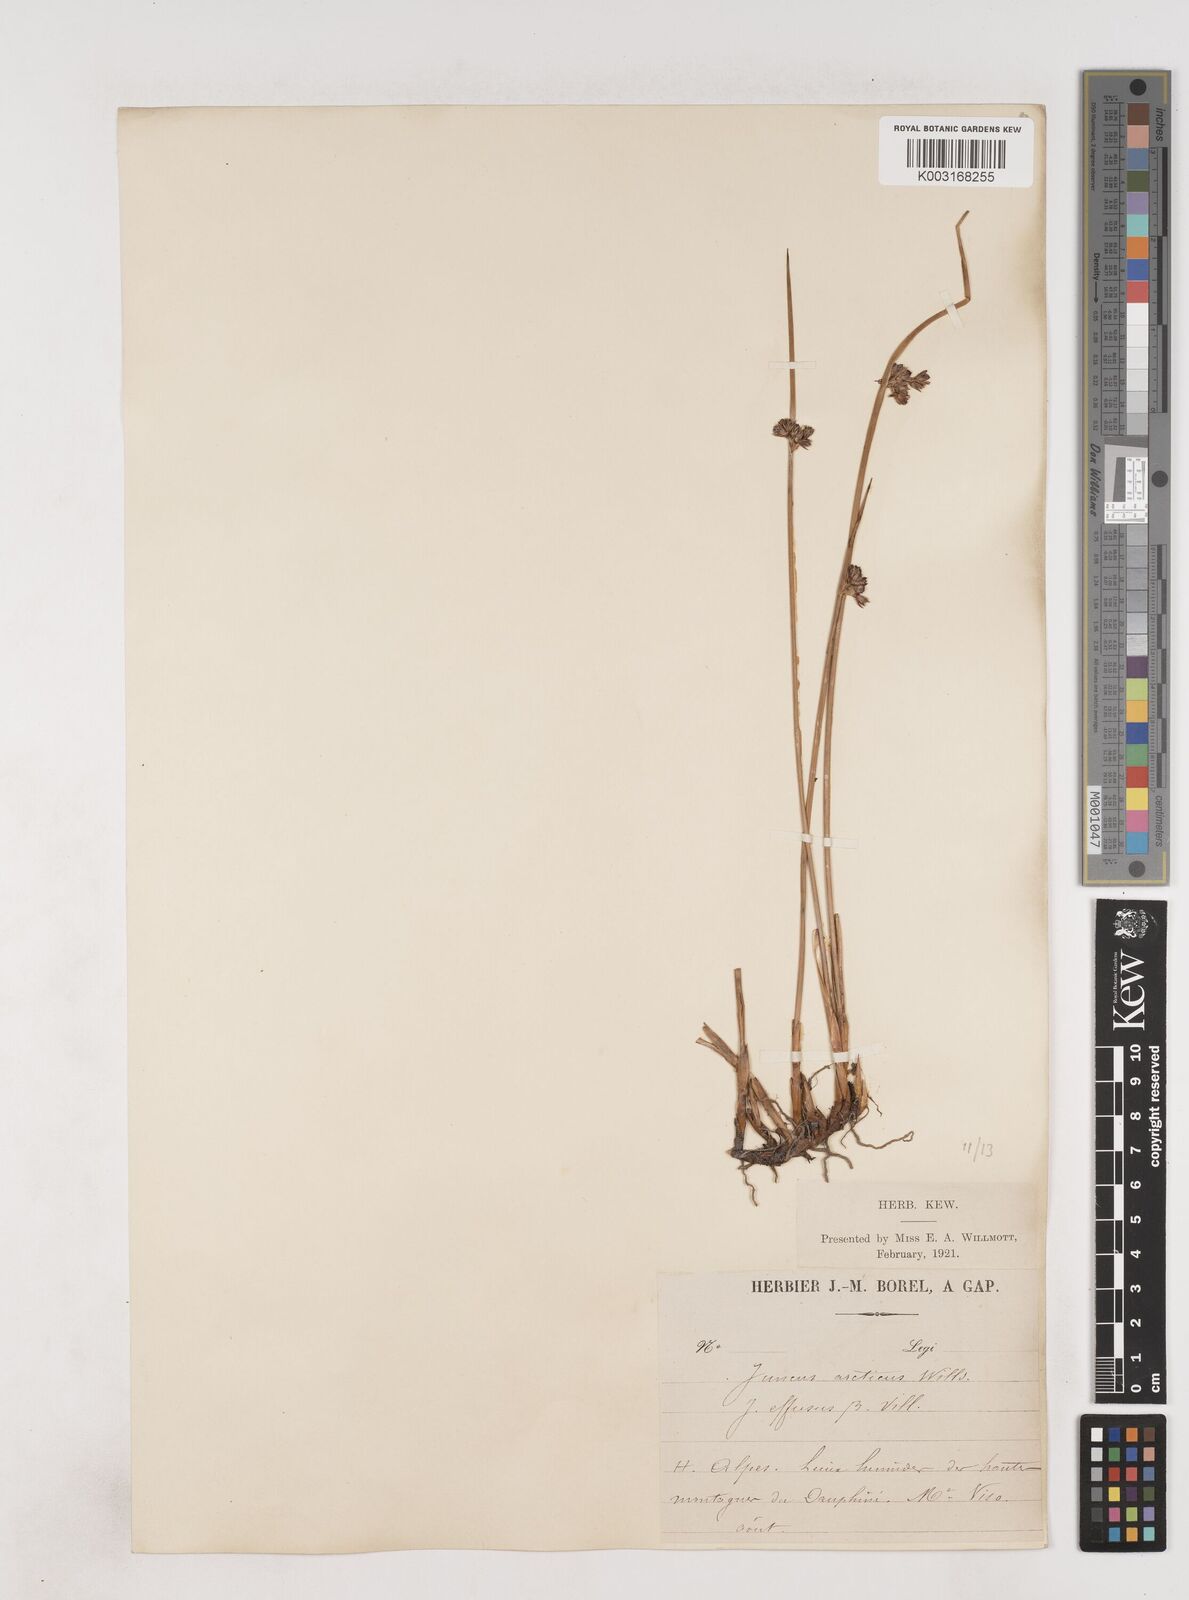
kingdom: Plantae
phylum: Tracheophyta
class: Liliopsida
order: Poales
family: Juncaceae
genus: Juncus
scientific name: Juncus arcticus
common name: Arctic rush
